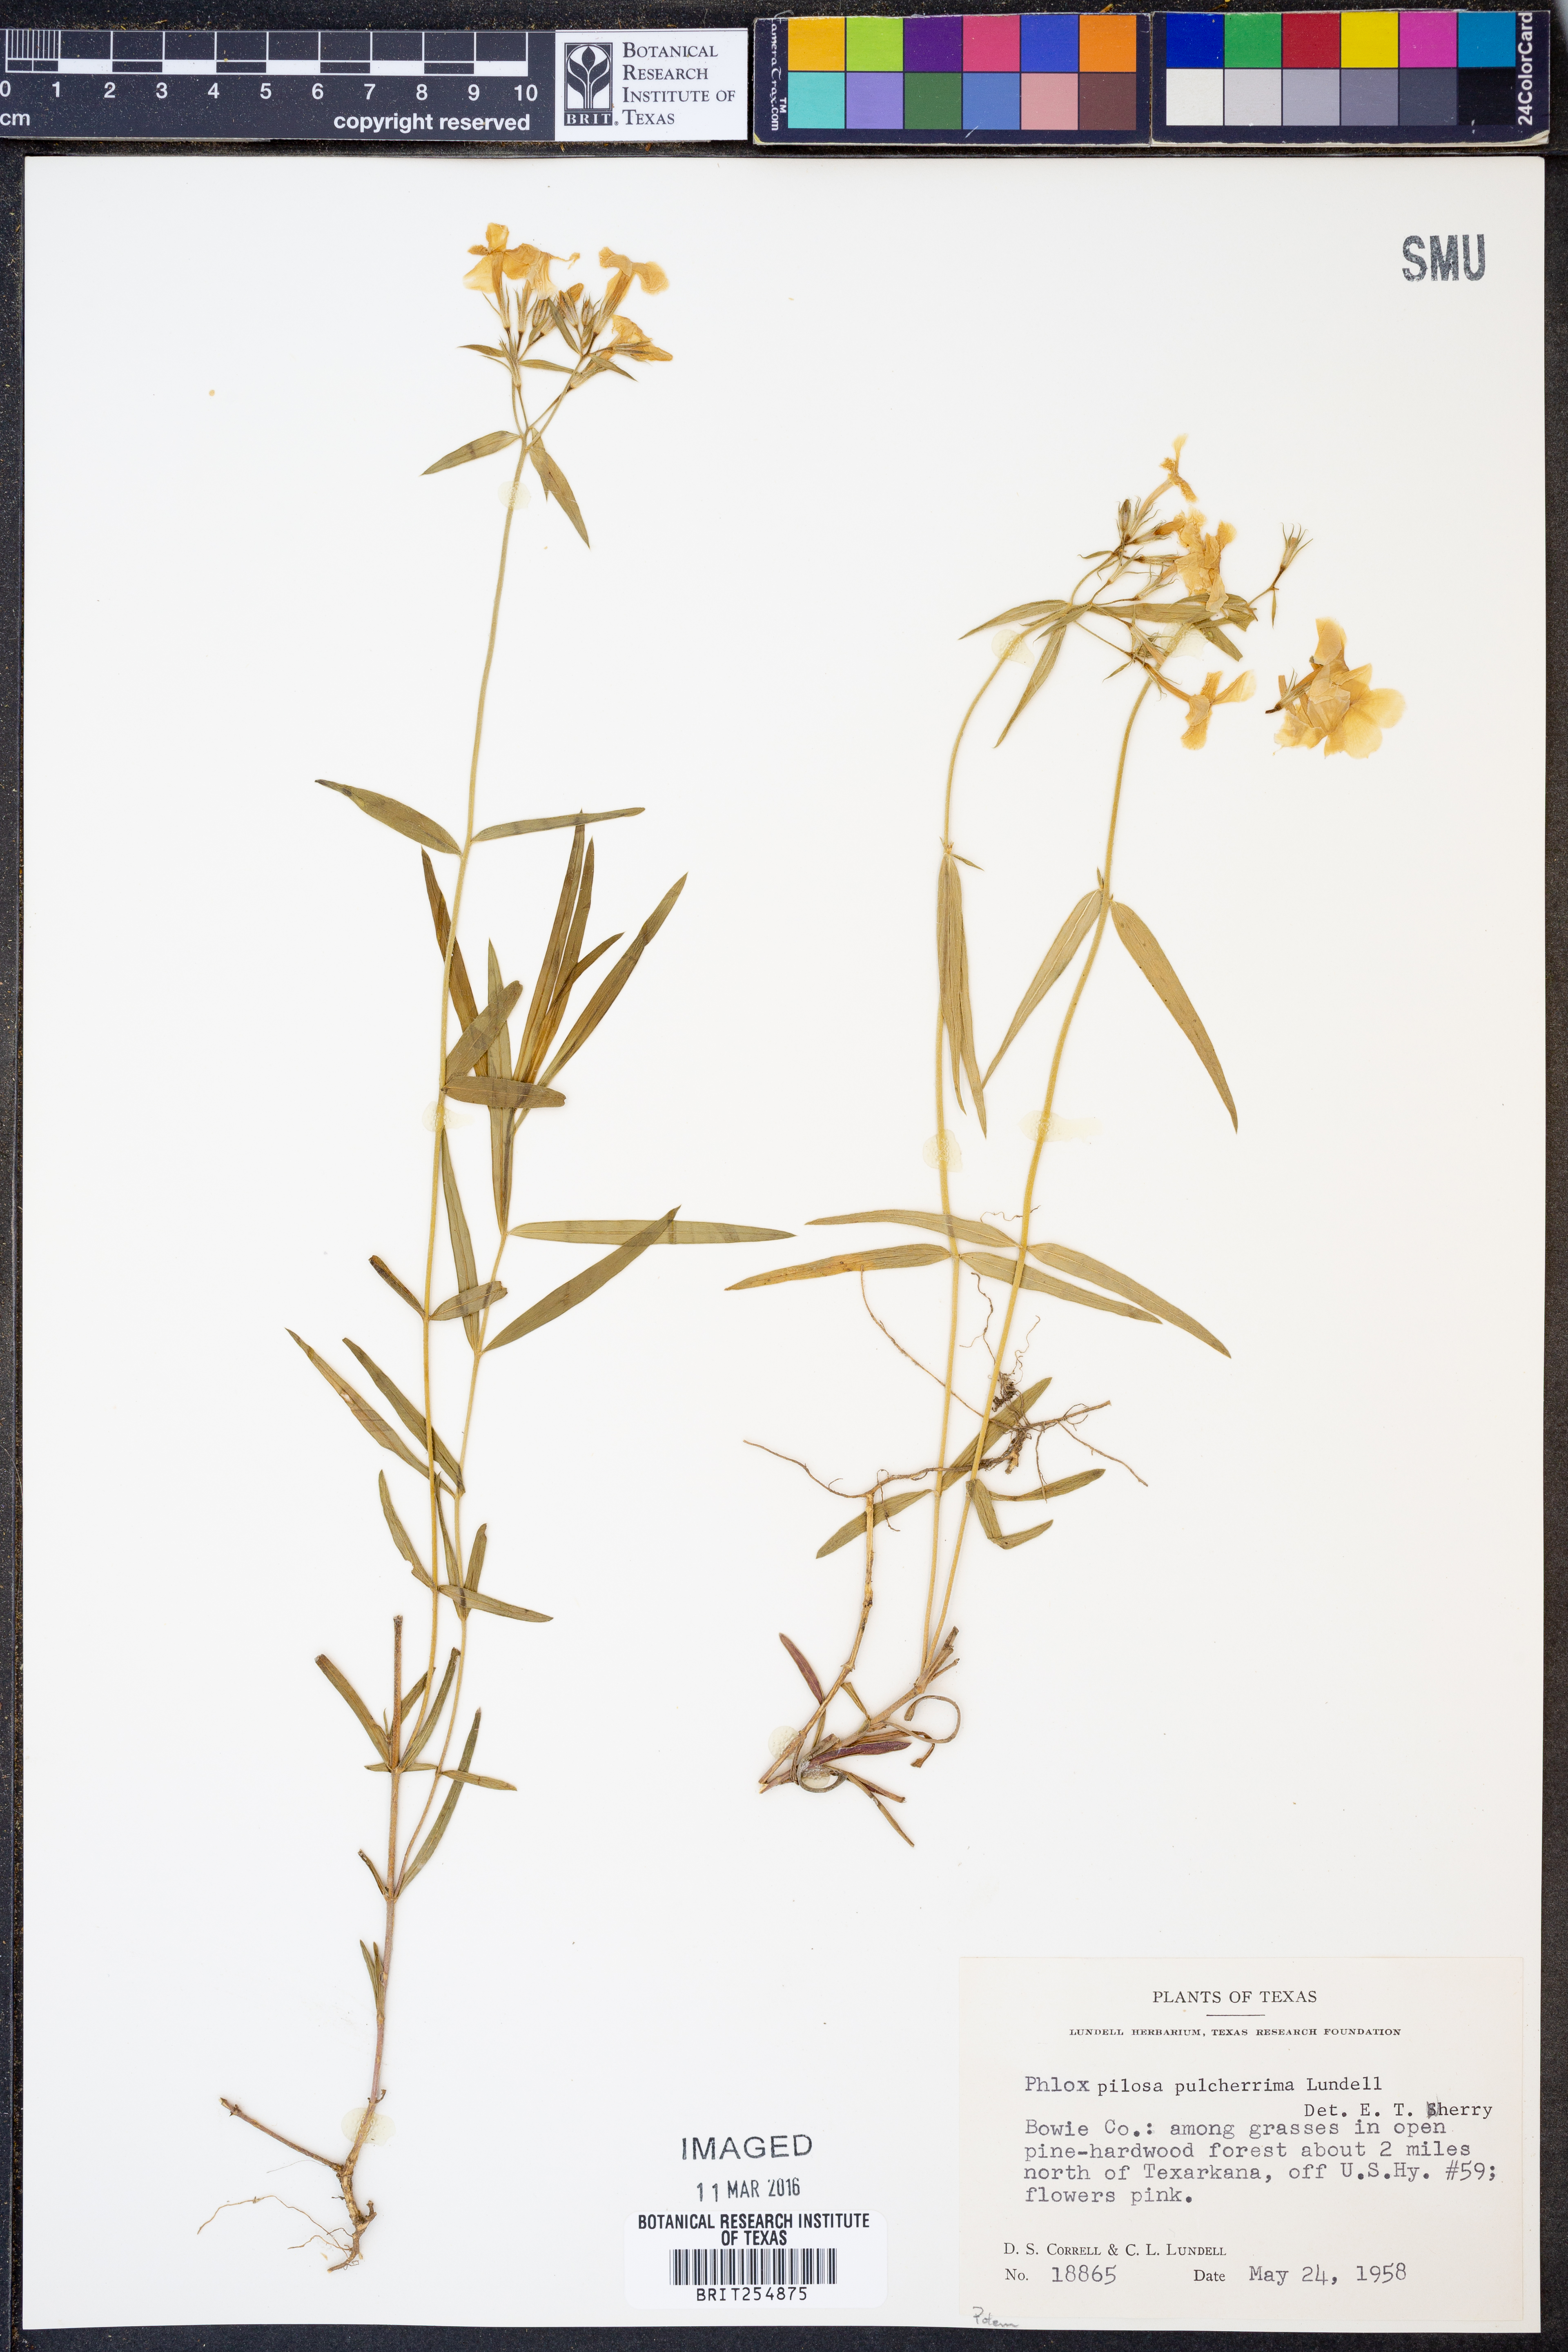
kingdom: Plantae
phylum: Tracheophyta
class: Magnoliopsida
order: Ericales
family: Polemoniaceae
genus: Phlox
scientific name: Phlox pilosa
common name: Prairie phlox
